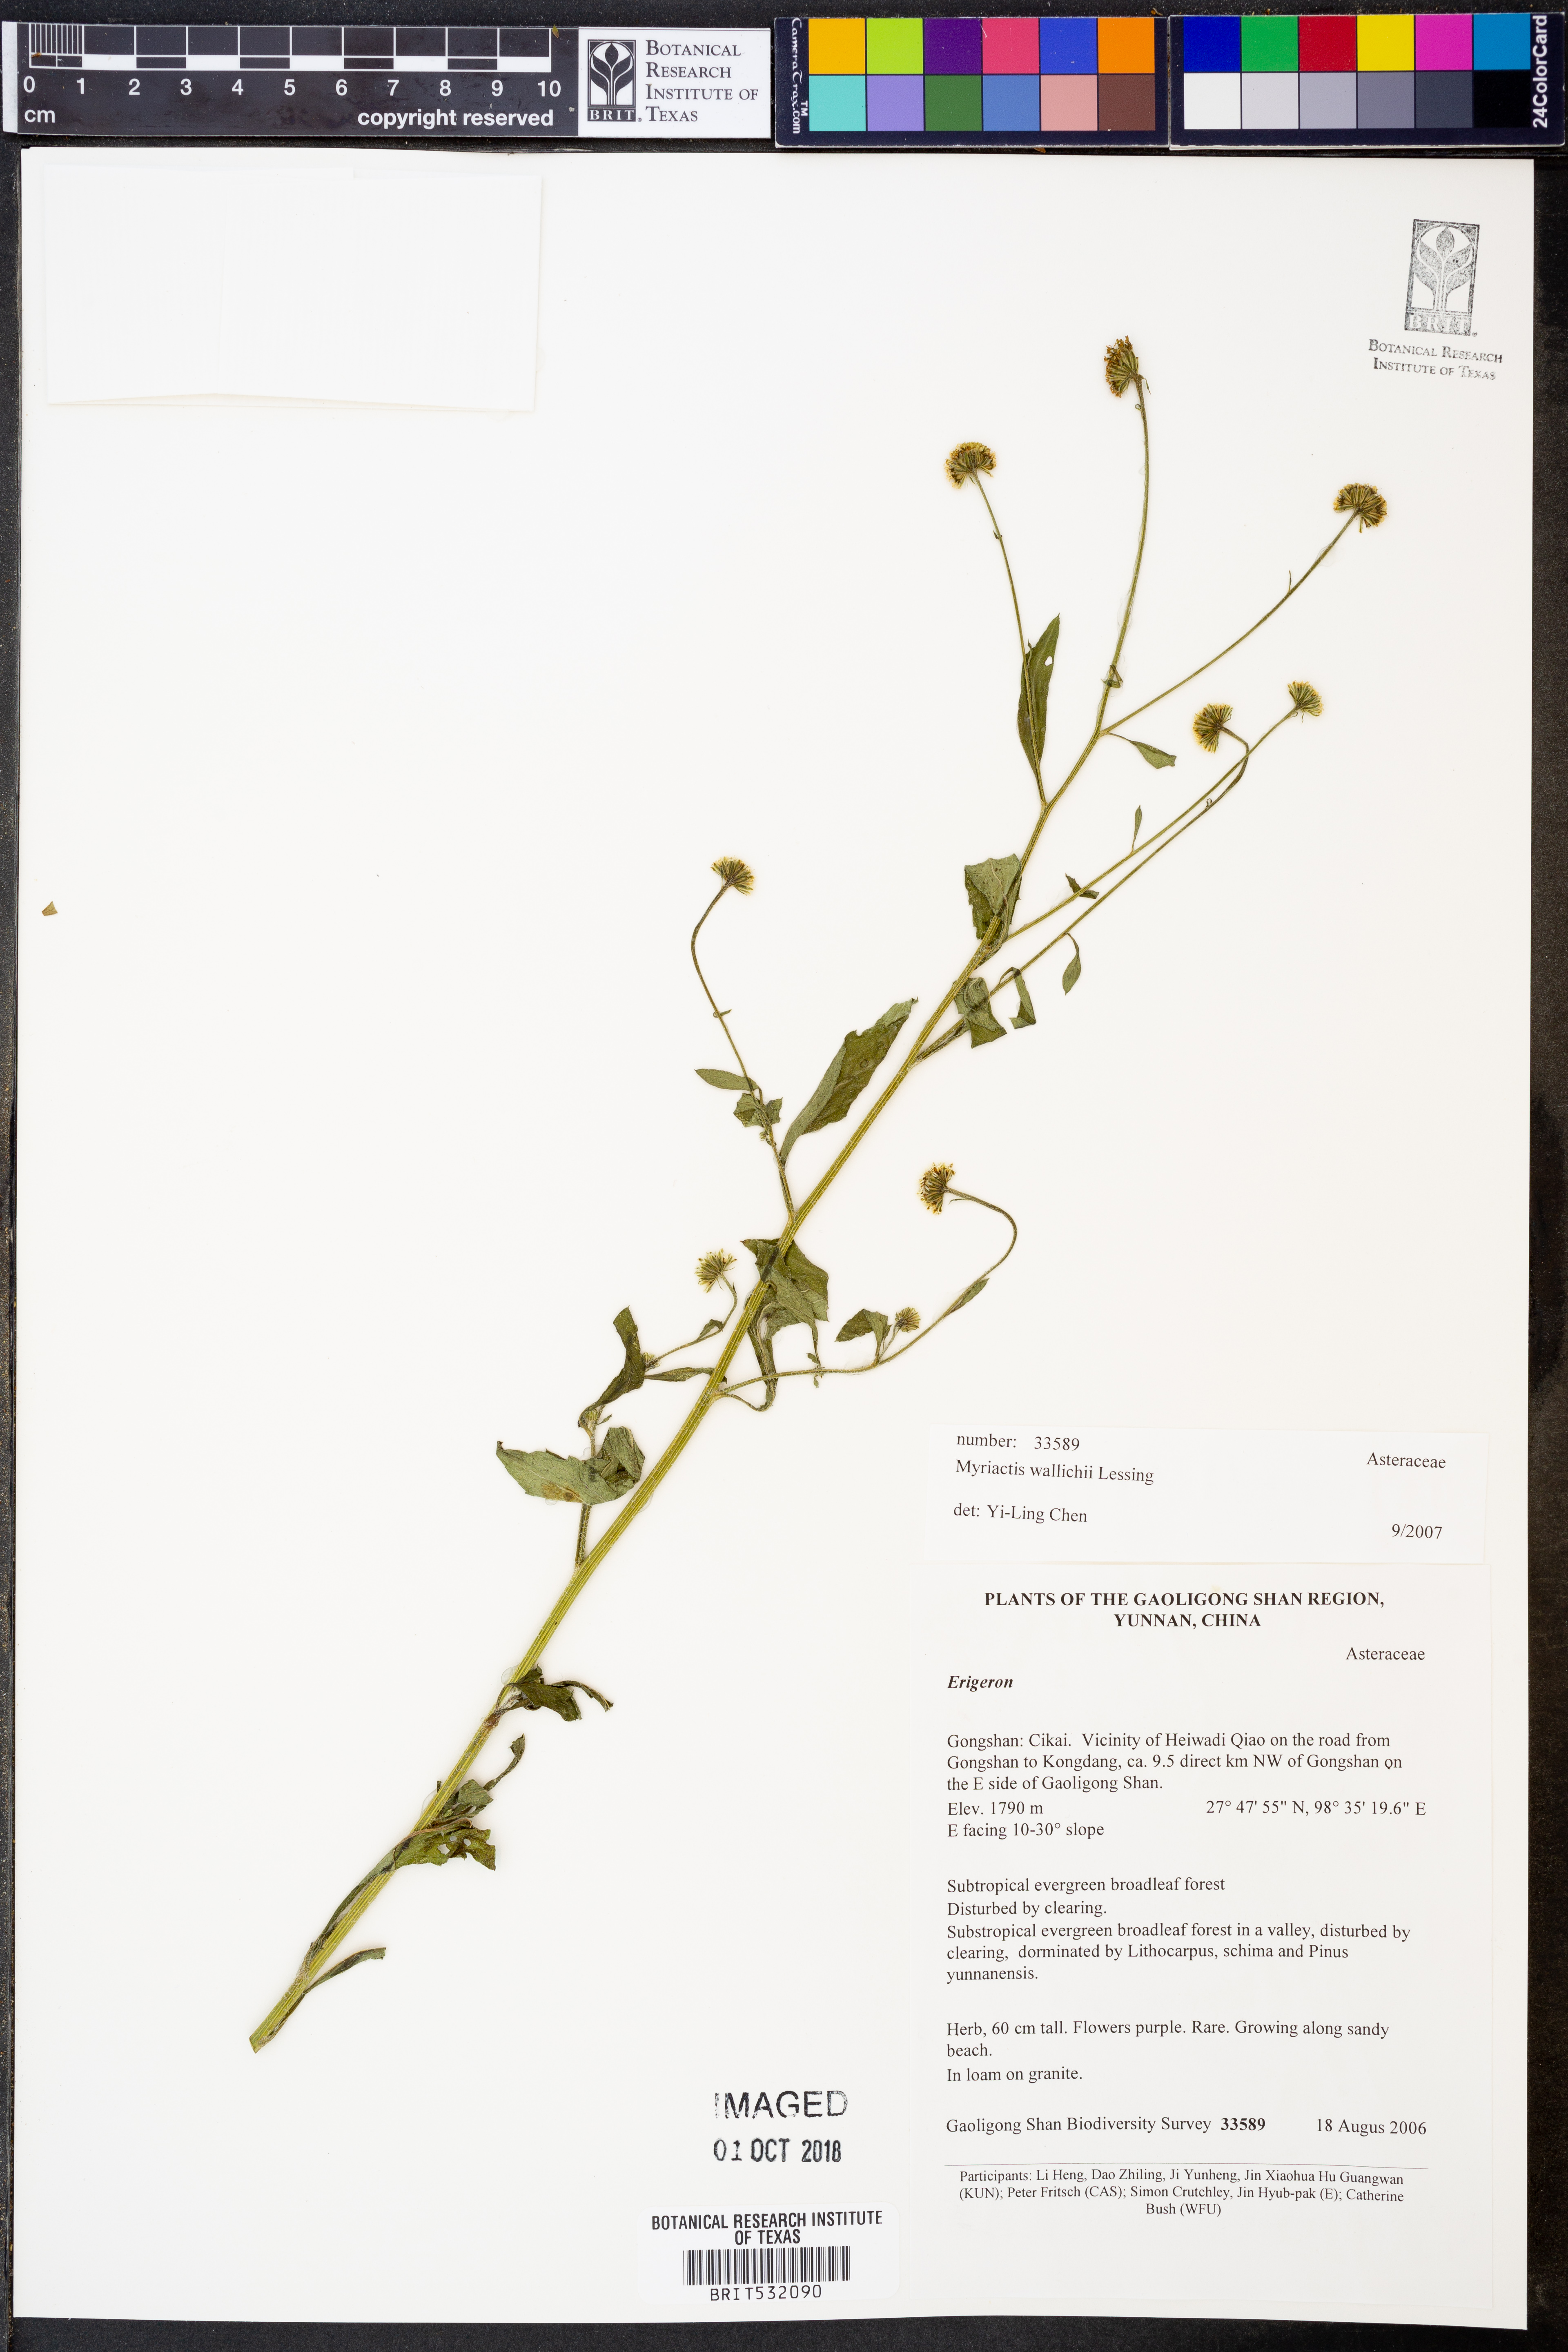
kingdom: Plantae
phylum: Tracheophyta
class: Magnoliopsida
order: Asterales
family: Asteraceae
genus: Myriactis
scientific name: Myriactis wallichii
